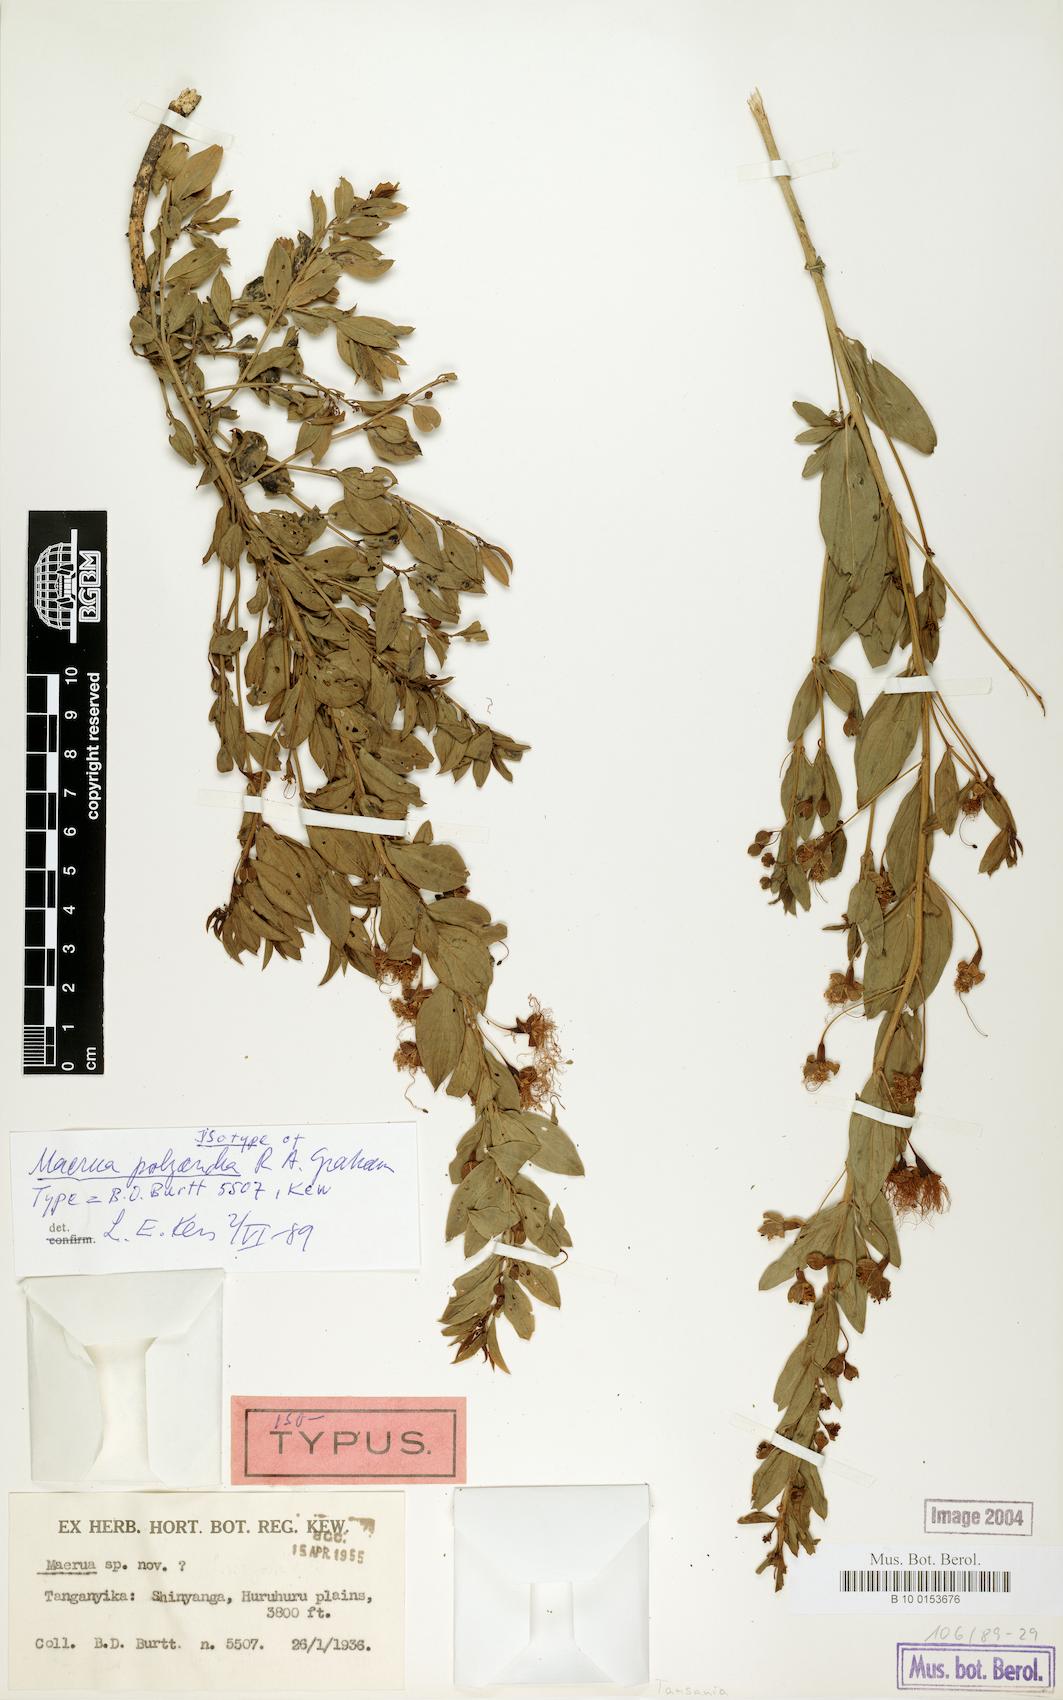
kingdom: Plantae
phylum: Tracheophyta
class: Magnoliopsida
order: Brassicales
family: Capparaceae
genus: Maerua
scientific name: Maerua polyandra
